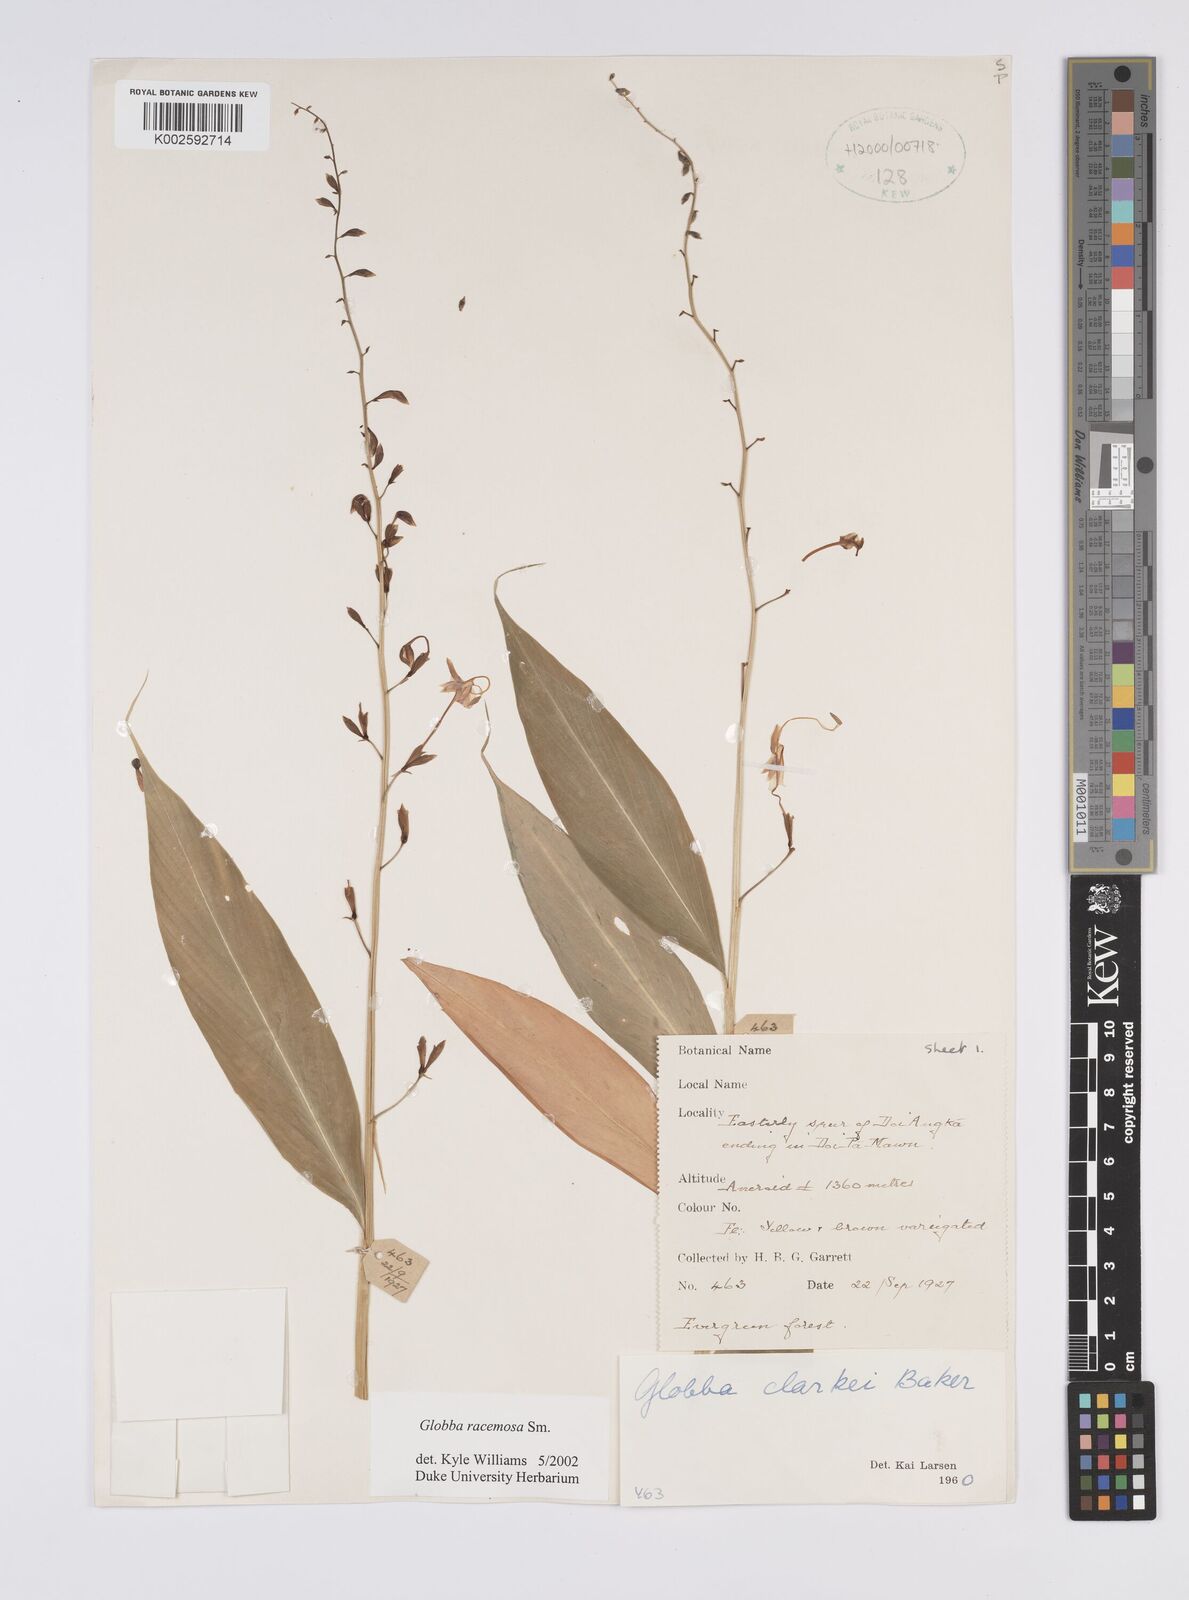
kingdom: Plantae
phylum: Tracheophyta
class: Liliopsida
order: Zingiberales
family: Zingiberaceae
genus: Globba
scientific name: Globba racemosa
